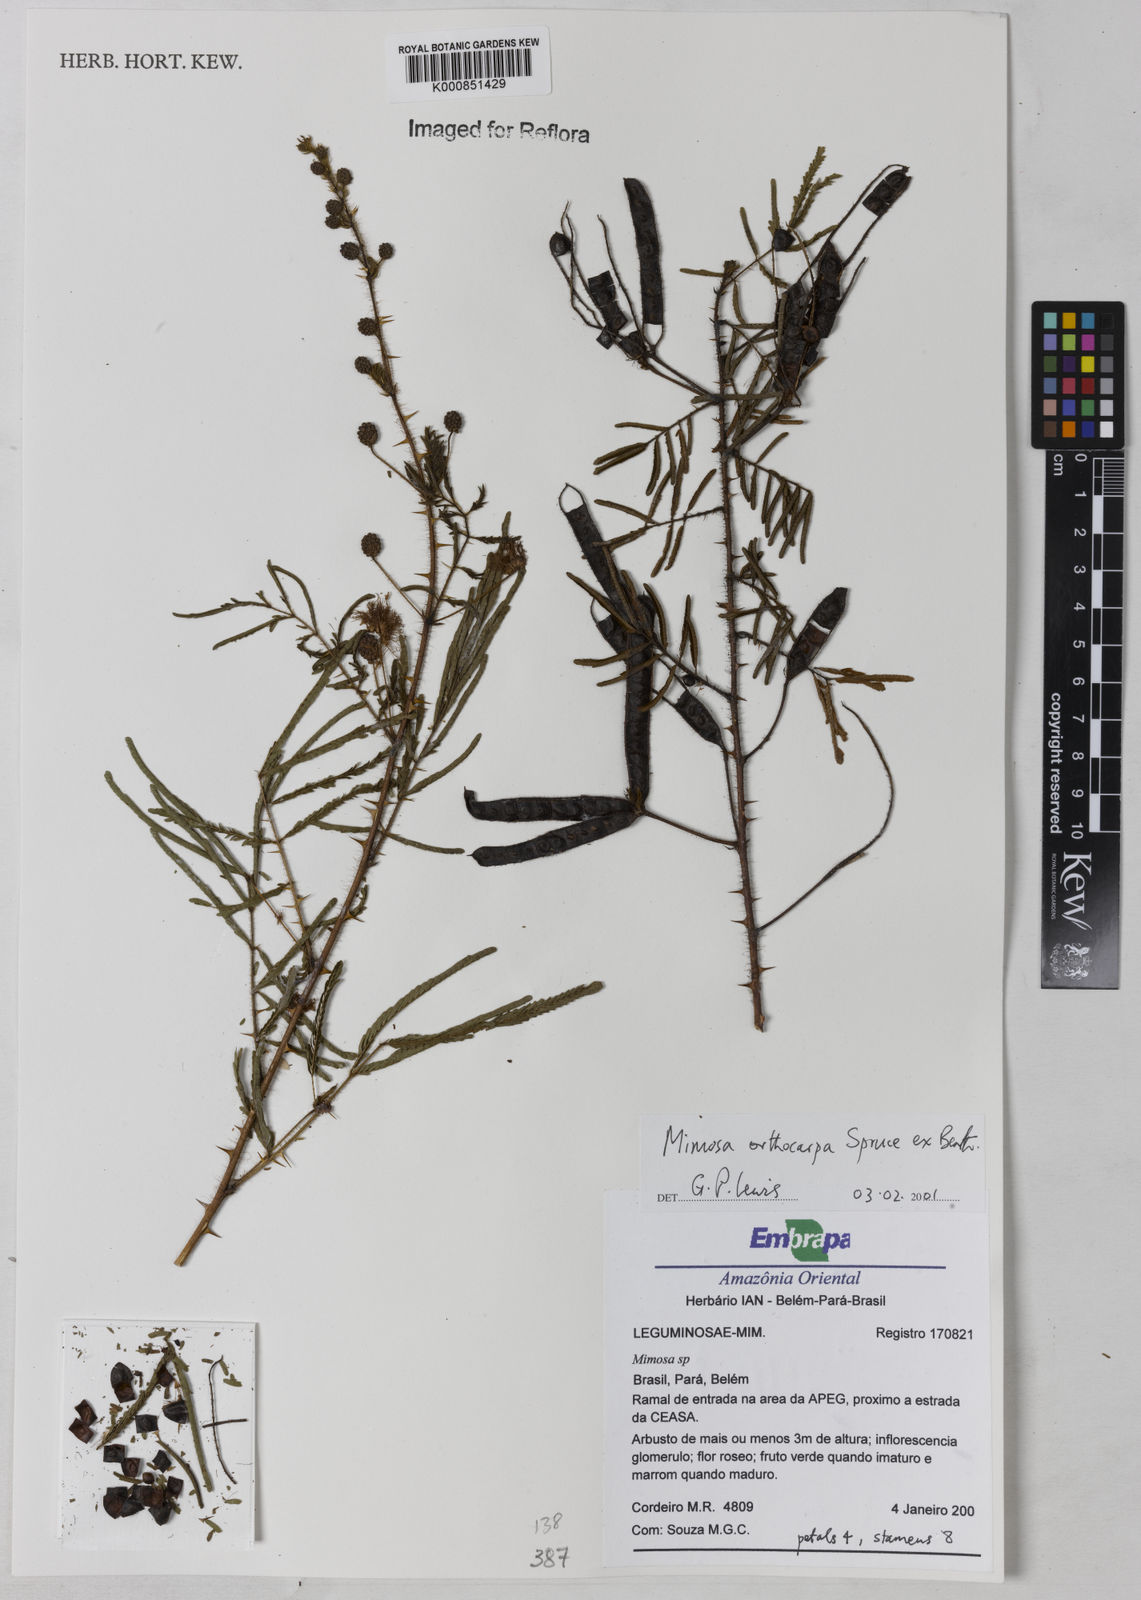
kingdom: Plantae
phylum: Tracheophyta
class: Magnoliopsida
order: Fabales
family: Fabaceae
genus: Mimosa
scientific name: Mimosa paludosa
